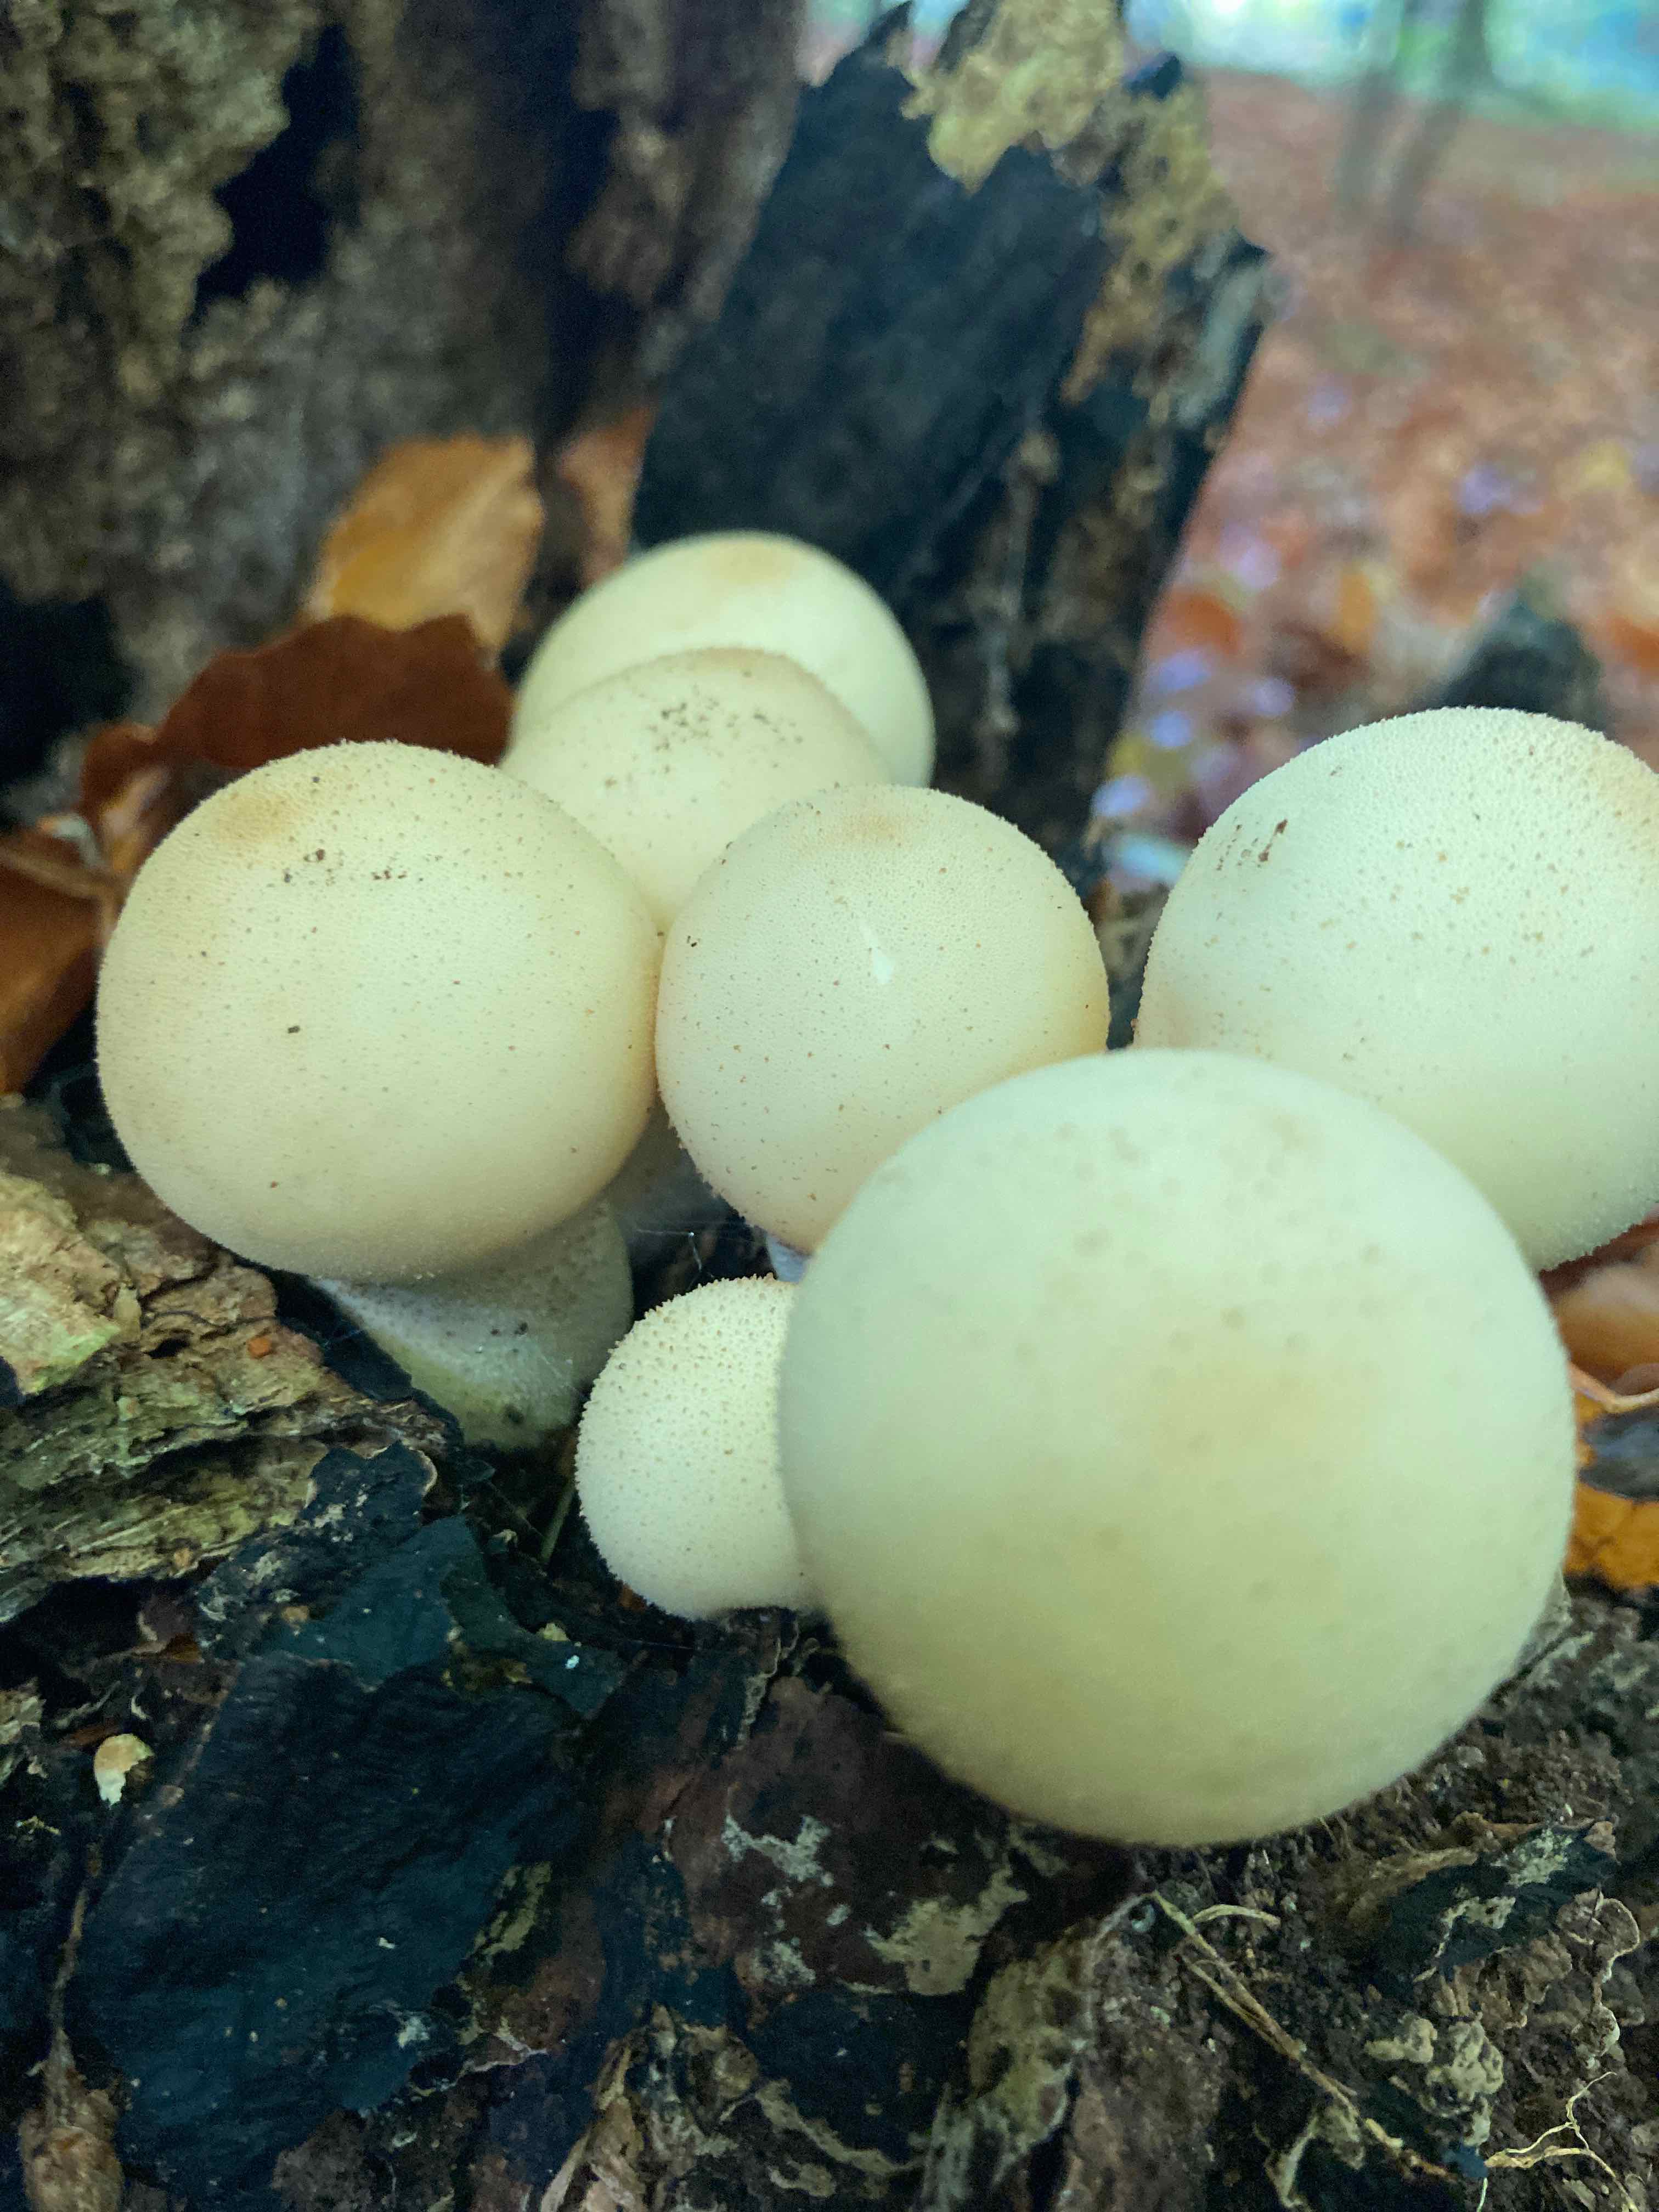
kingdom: Fungi
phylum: Basidiomycota
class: Agaricomycetes
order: Agaricales
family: Lycoperdaceae
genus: Apioperdon
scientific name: Apioperdon pyriforme
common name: pære-støvbold
